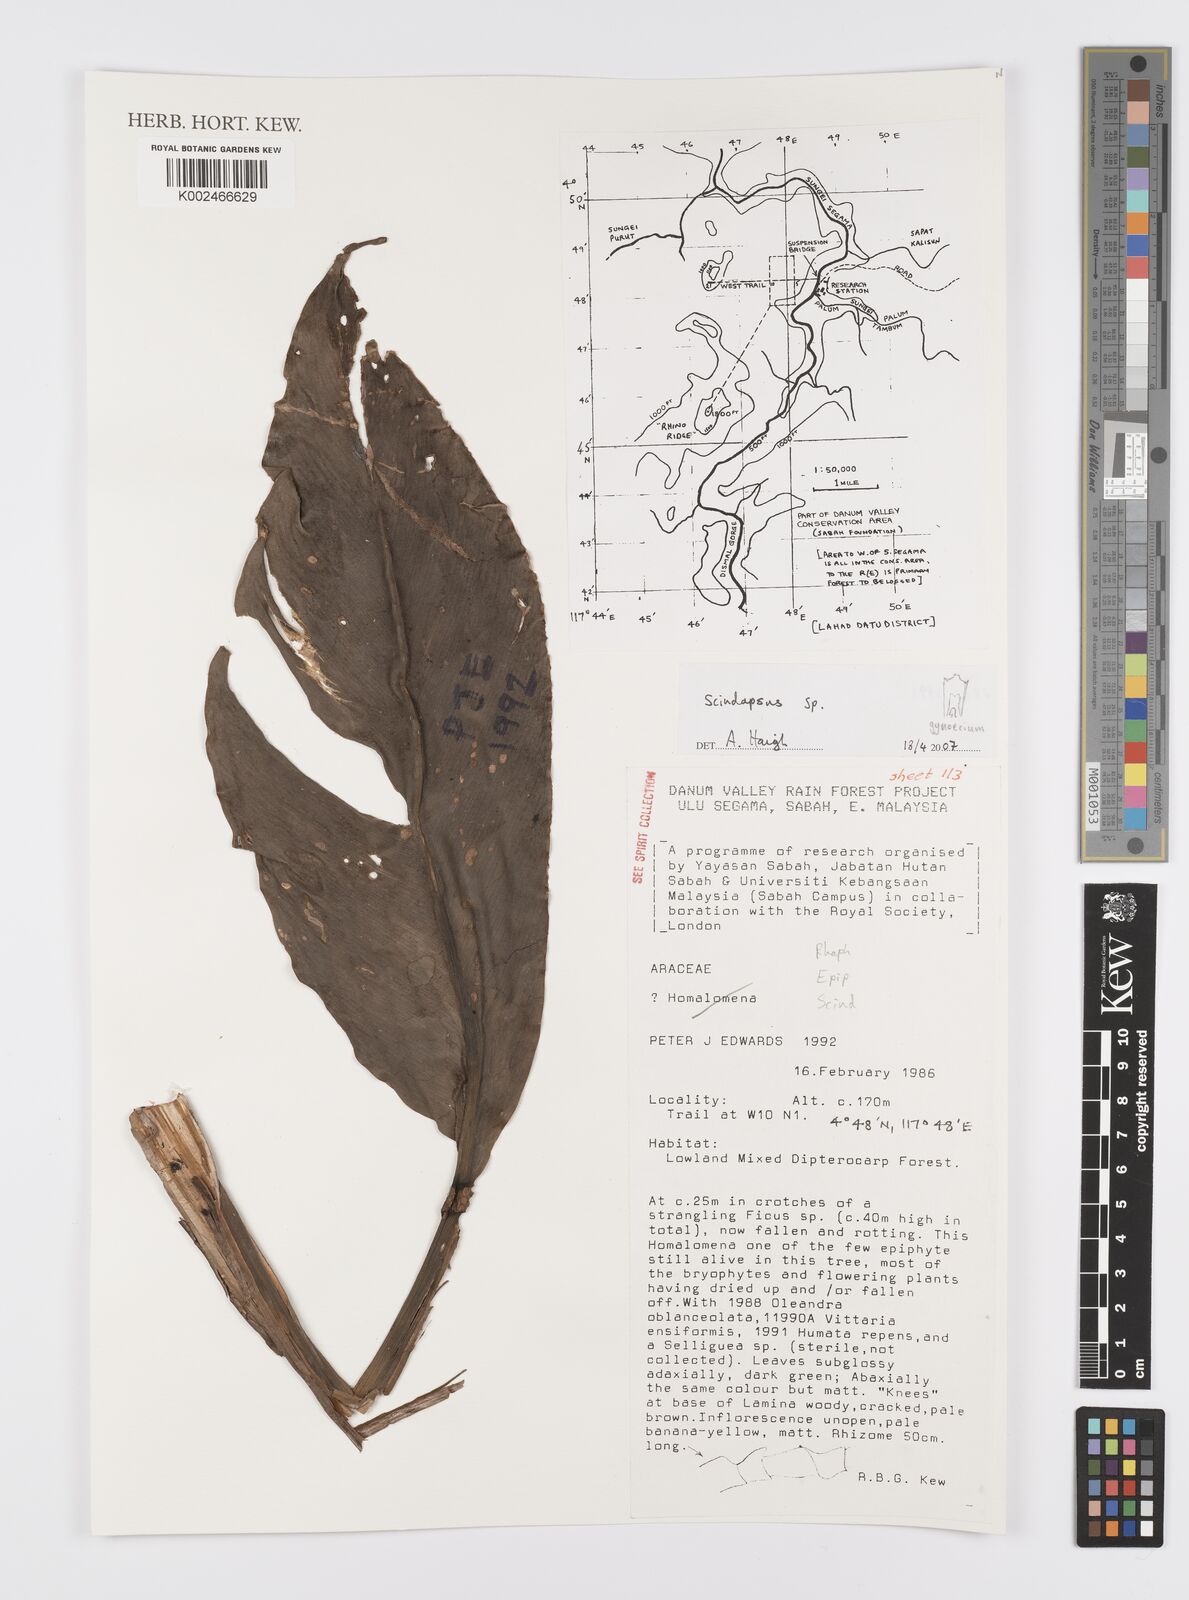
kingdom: Plantae
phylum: Tracheophyta
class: Liliopsida
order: Alismatales
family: Araceae
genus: Scindapsus
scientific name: Scindapsus
